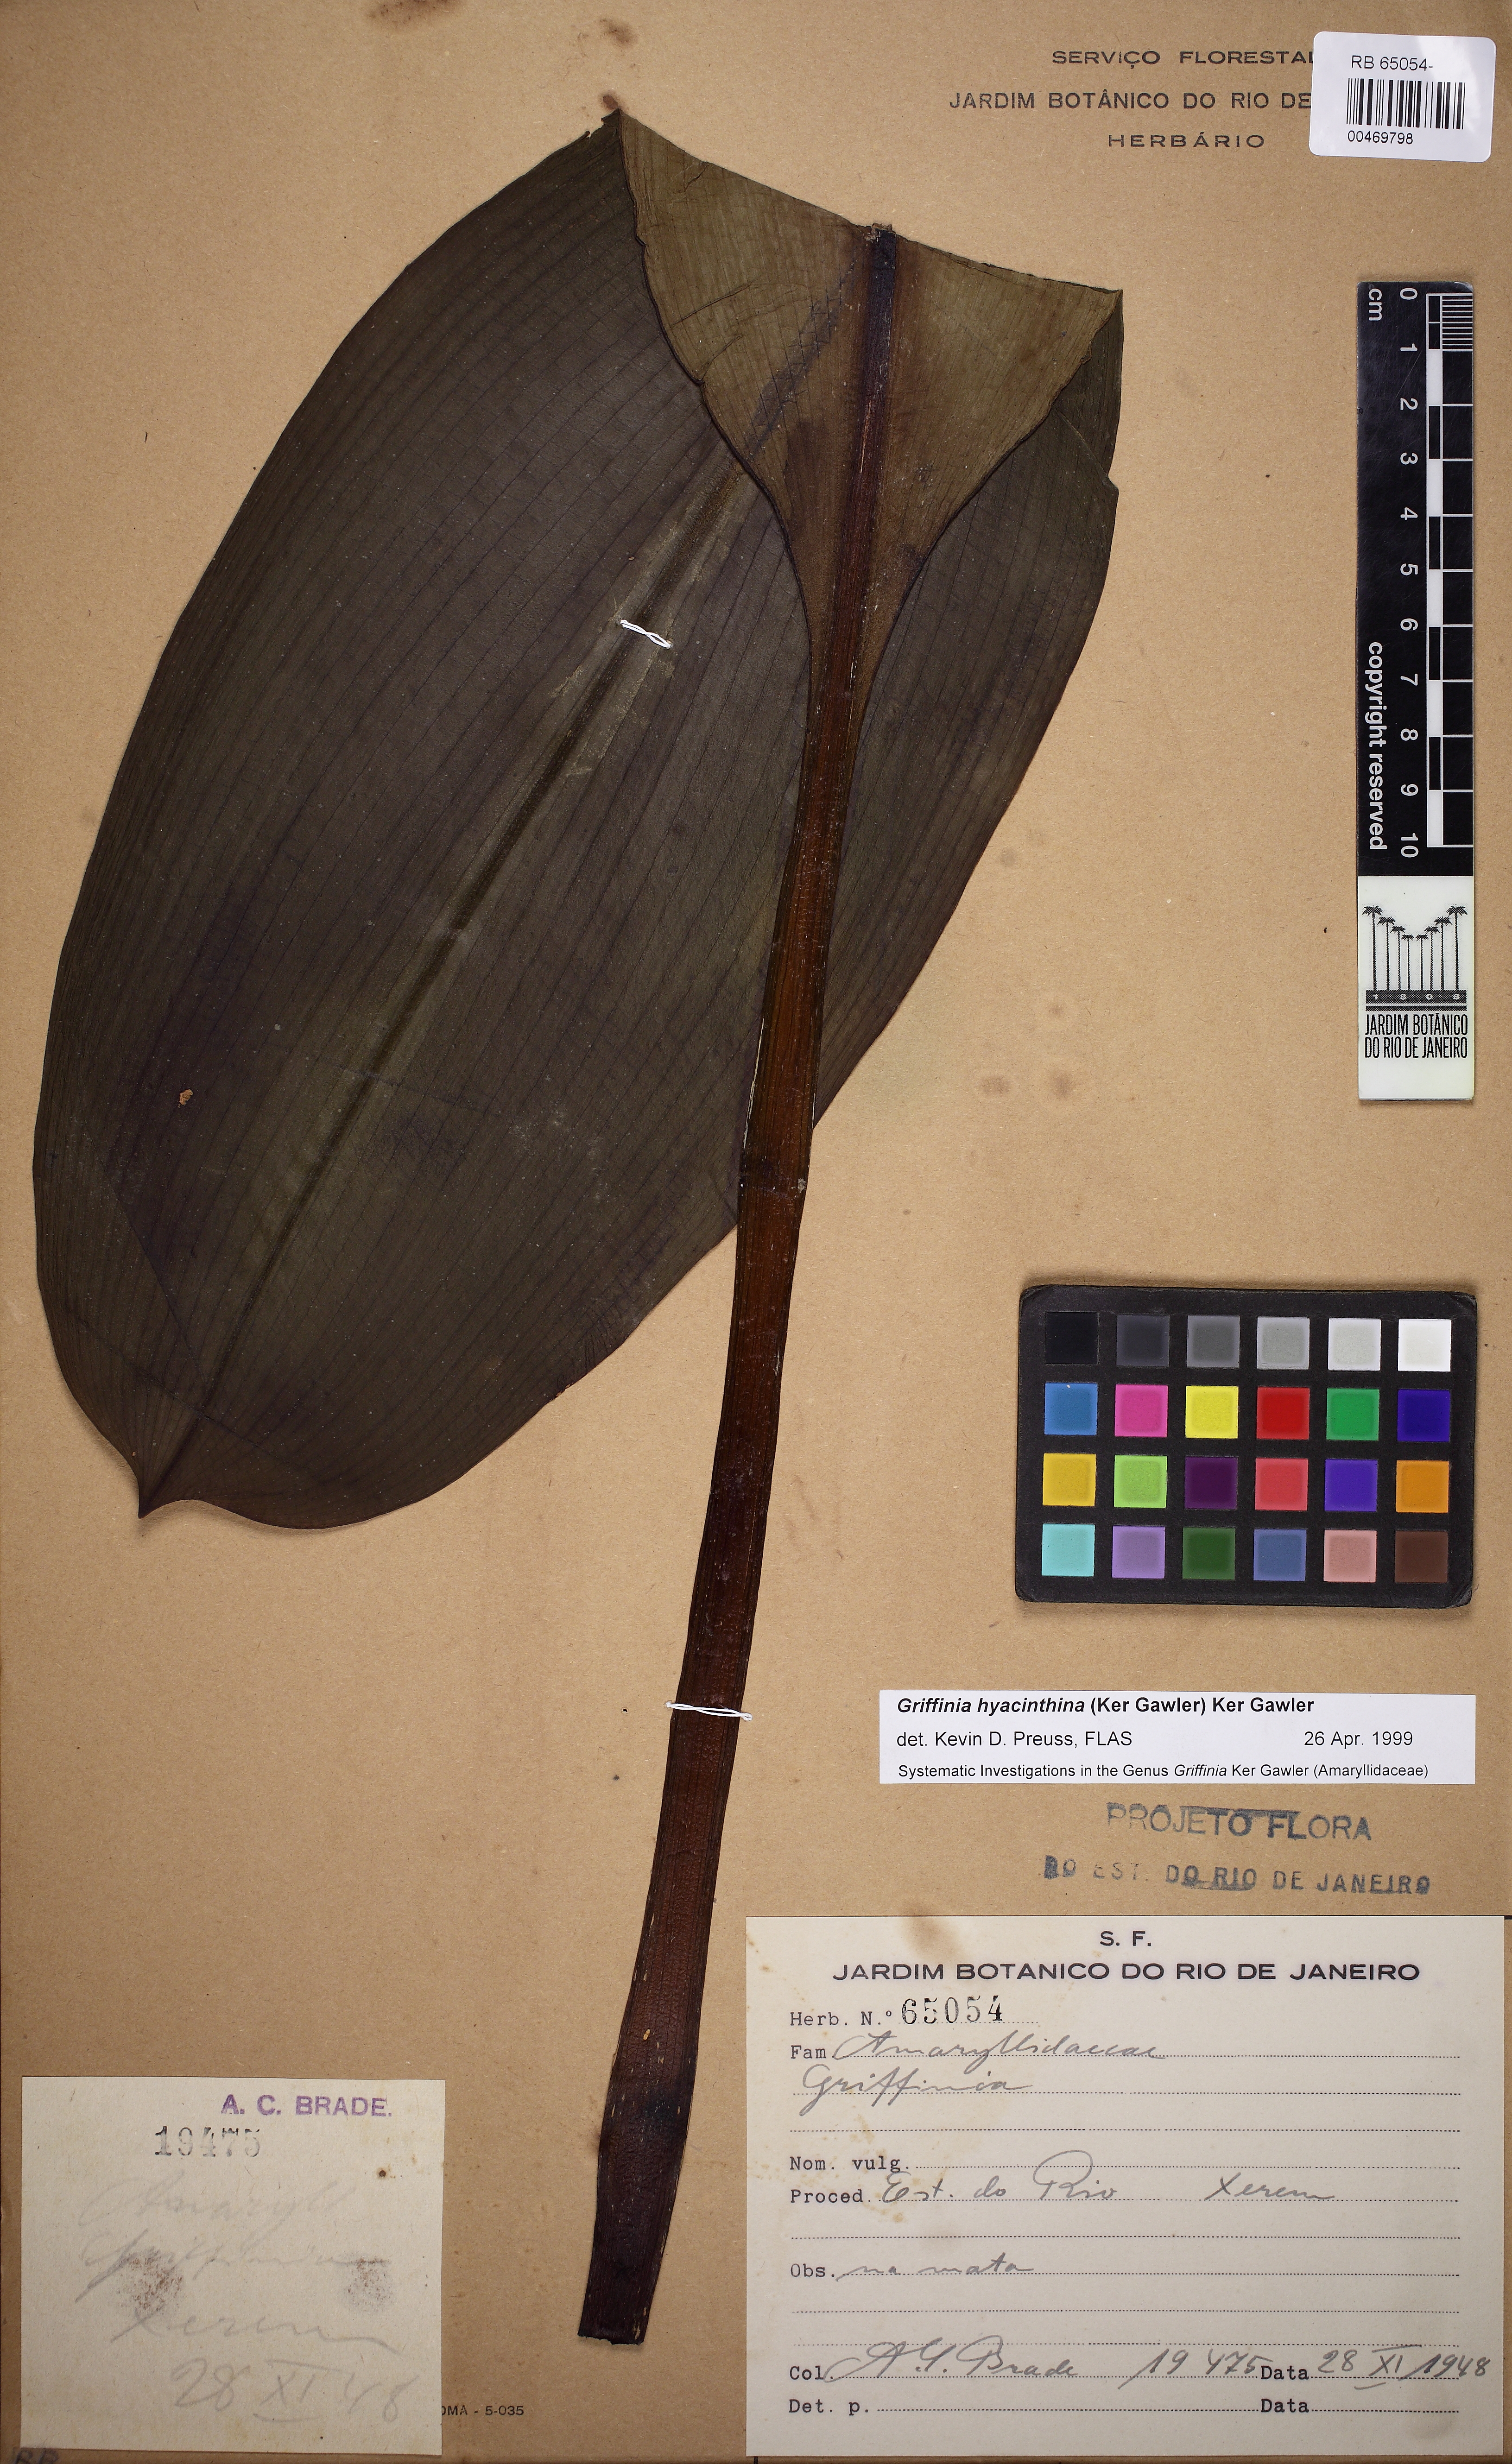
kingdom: Plantae
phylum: Tracheophyta
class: Liliopsida
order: Asparagales
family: Amaryllidaceae
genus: Griffinia
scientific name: Griffinia hyacinthina
